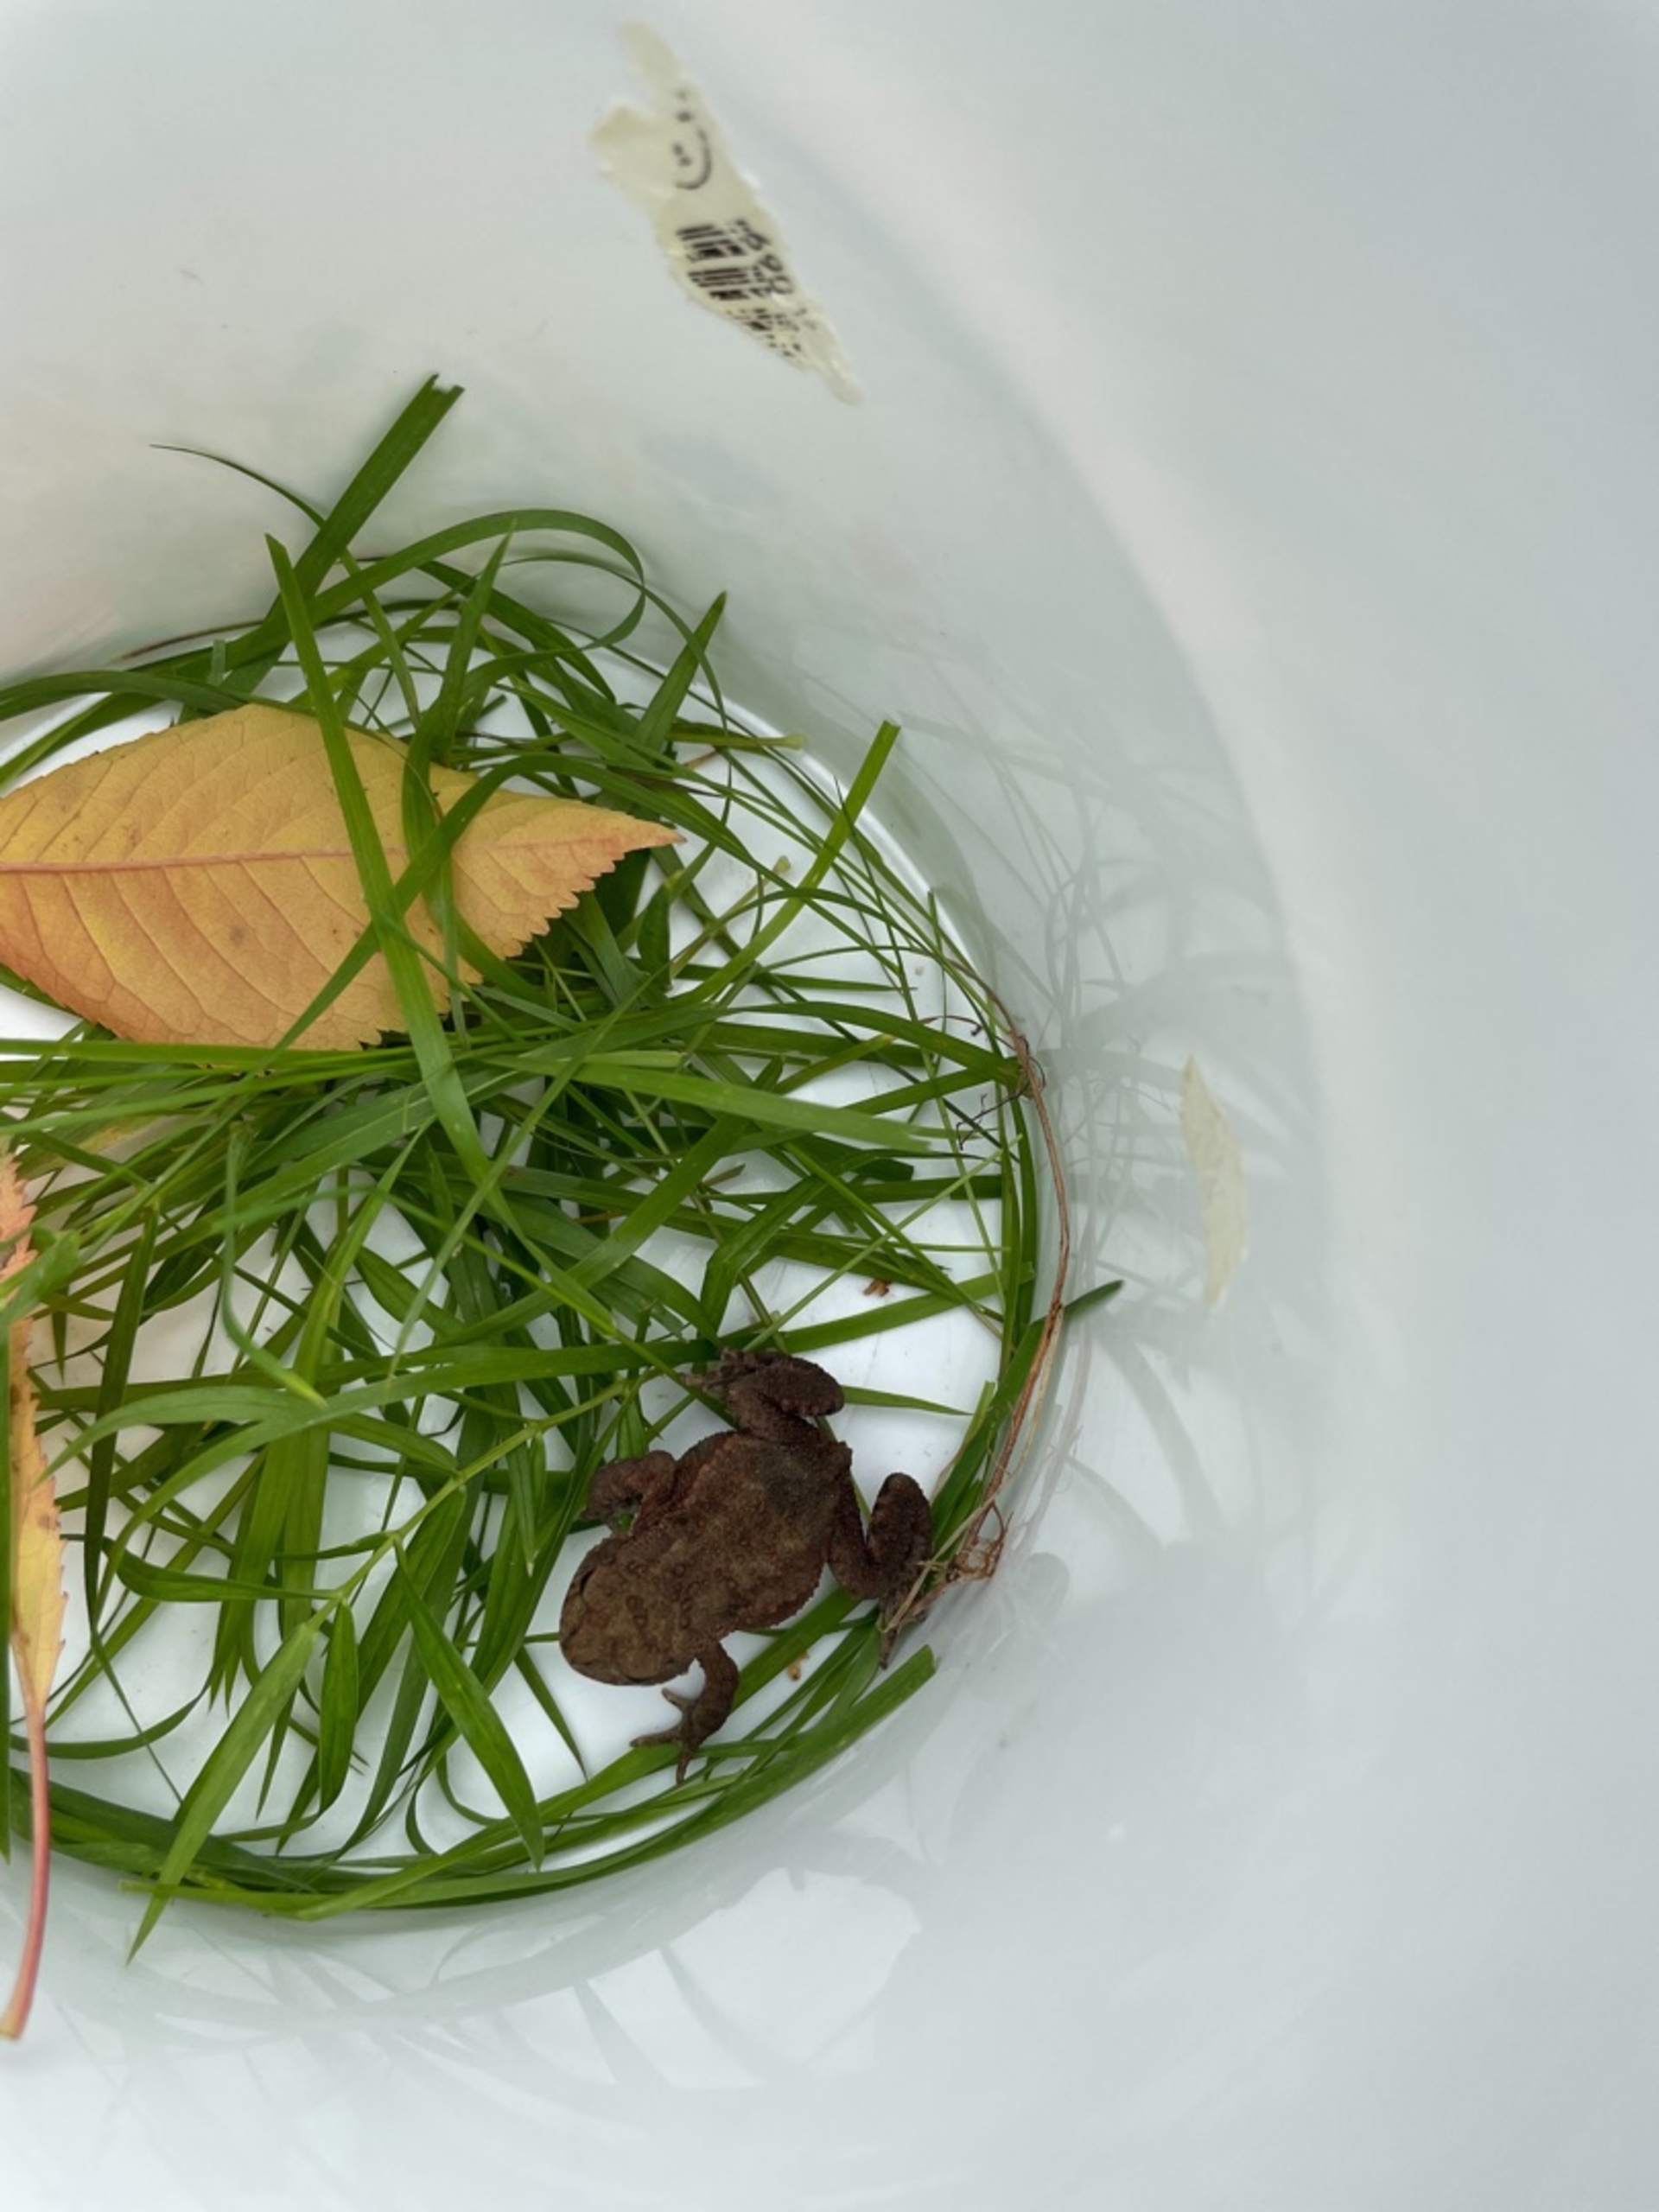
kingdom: Animalia
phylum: Chordata
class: Amphibia
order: Anura
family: Bufonidae
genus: Bufo
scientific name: Bufo bufo
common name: Skrubtudse
